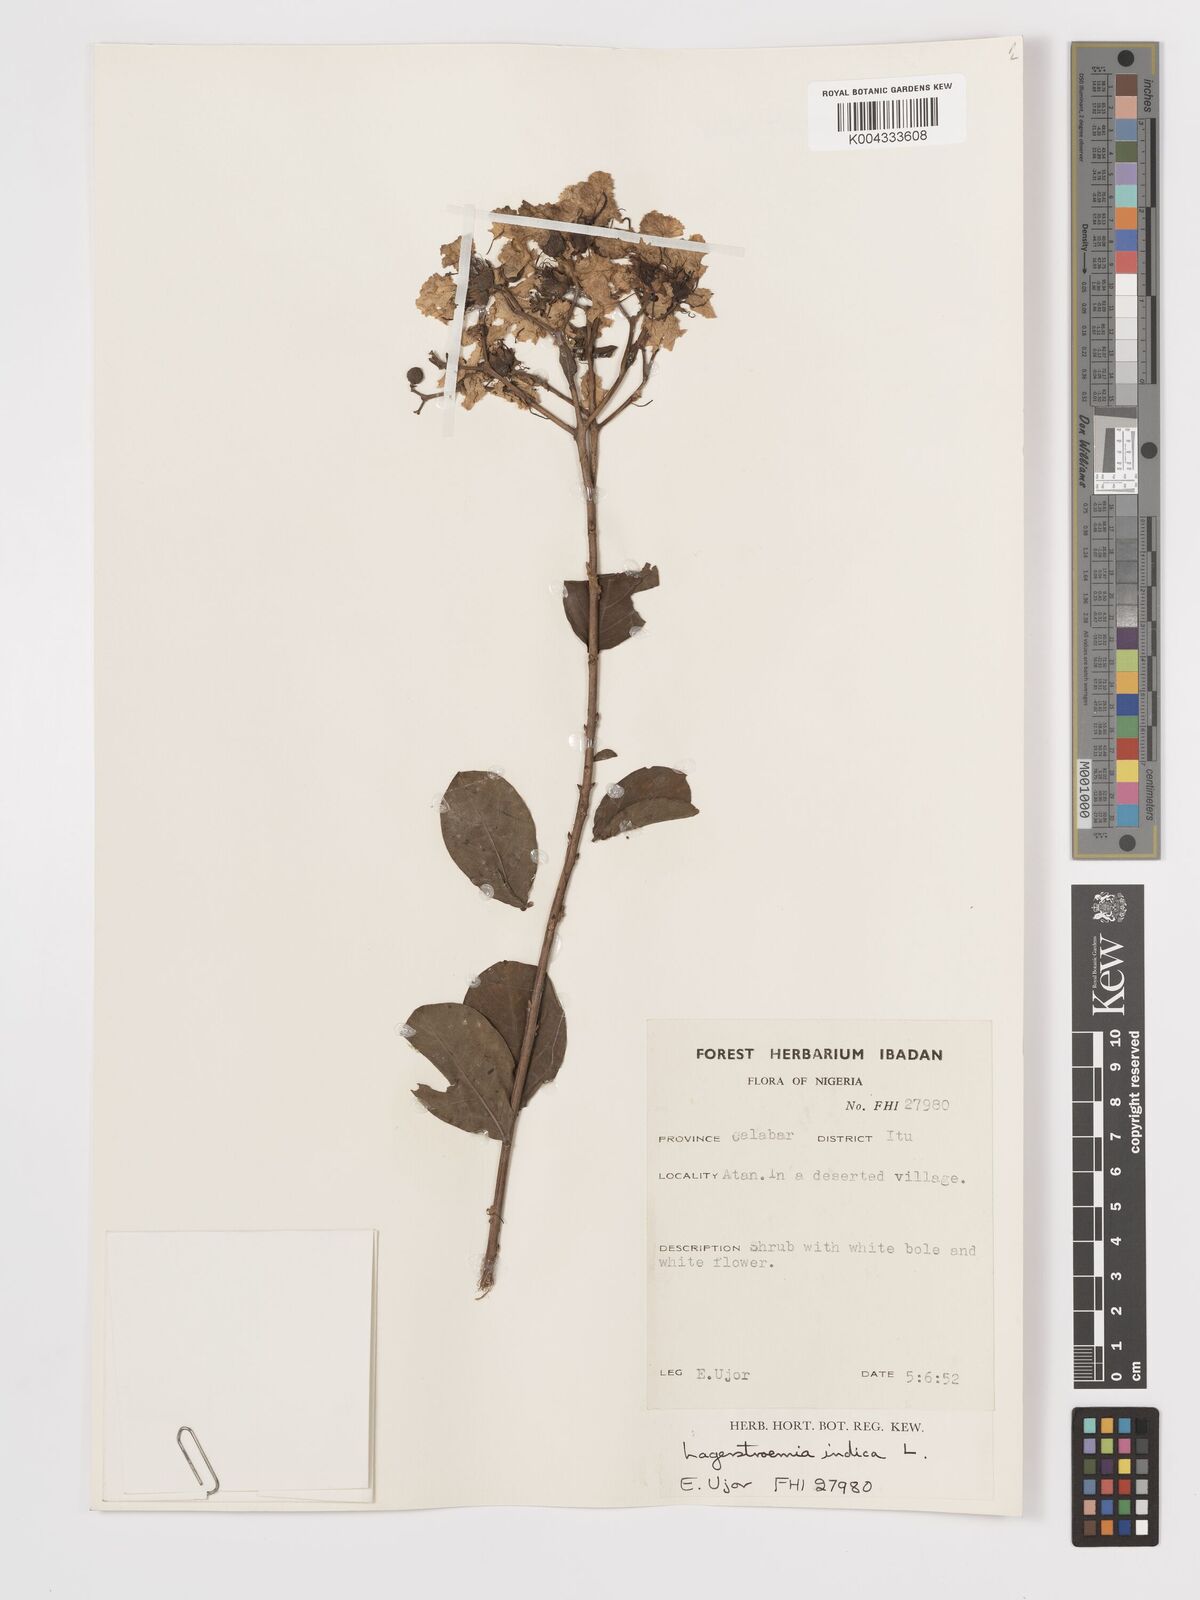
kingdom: Plantae
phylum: Tracheophyta
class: Magnoliopsida
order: Myrtales
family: Lythraceae
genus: Lagerstroemia
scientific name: Lagerstroemia indica
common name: Crape-myrtle
